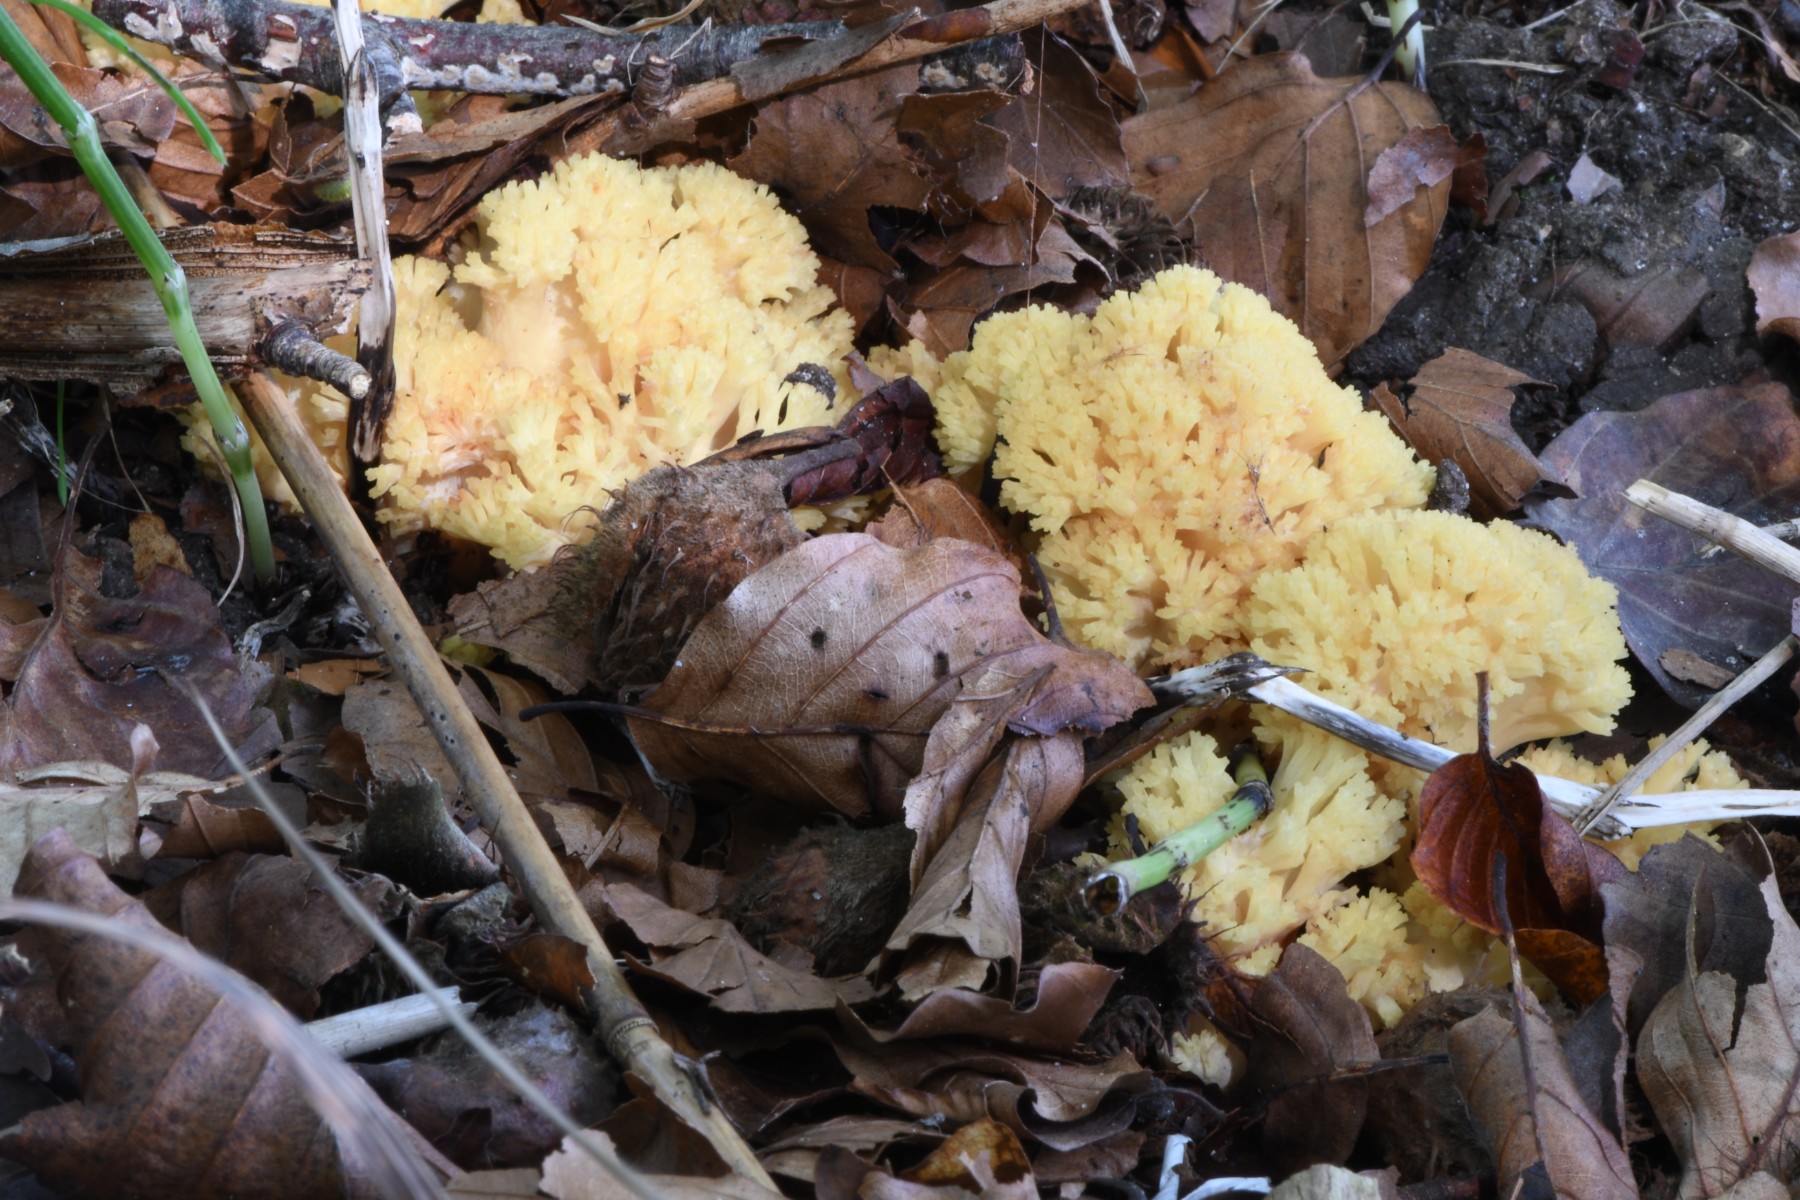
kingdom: Fungi
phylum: Basidiomycota
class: Agaricomycetes
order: Gomphales
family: Gomphaceae
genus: Ramaria
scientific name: Ramaria sanguinea
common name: blodplettet koralsvamp
